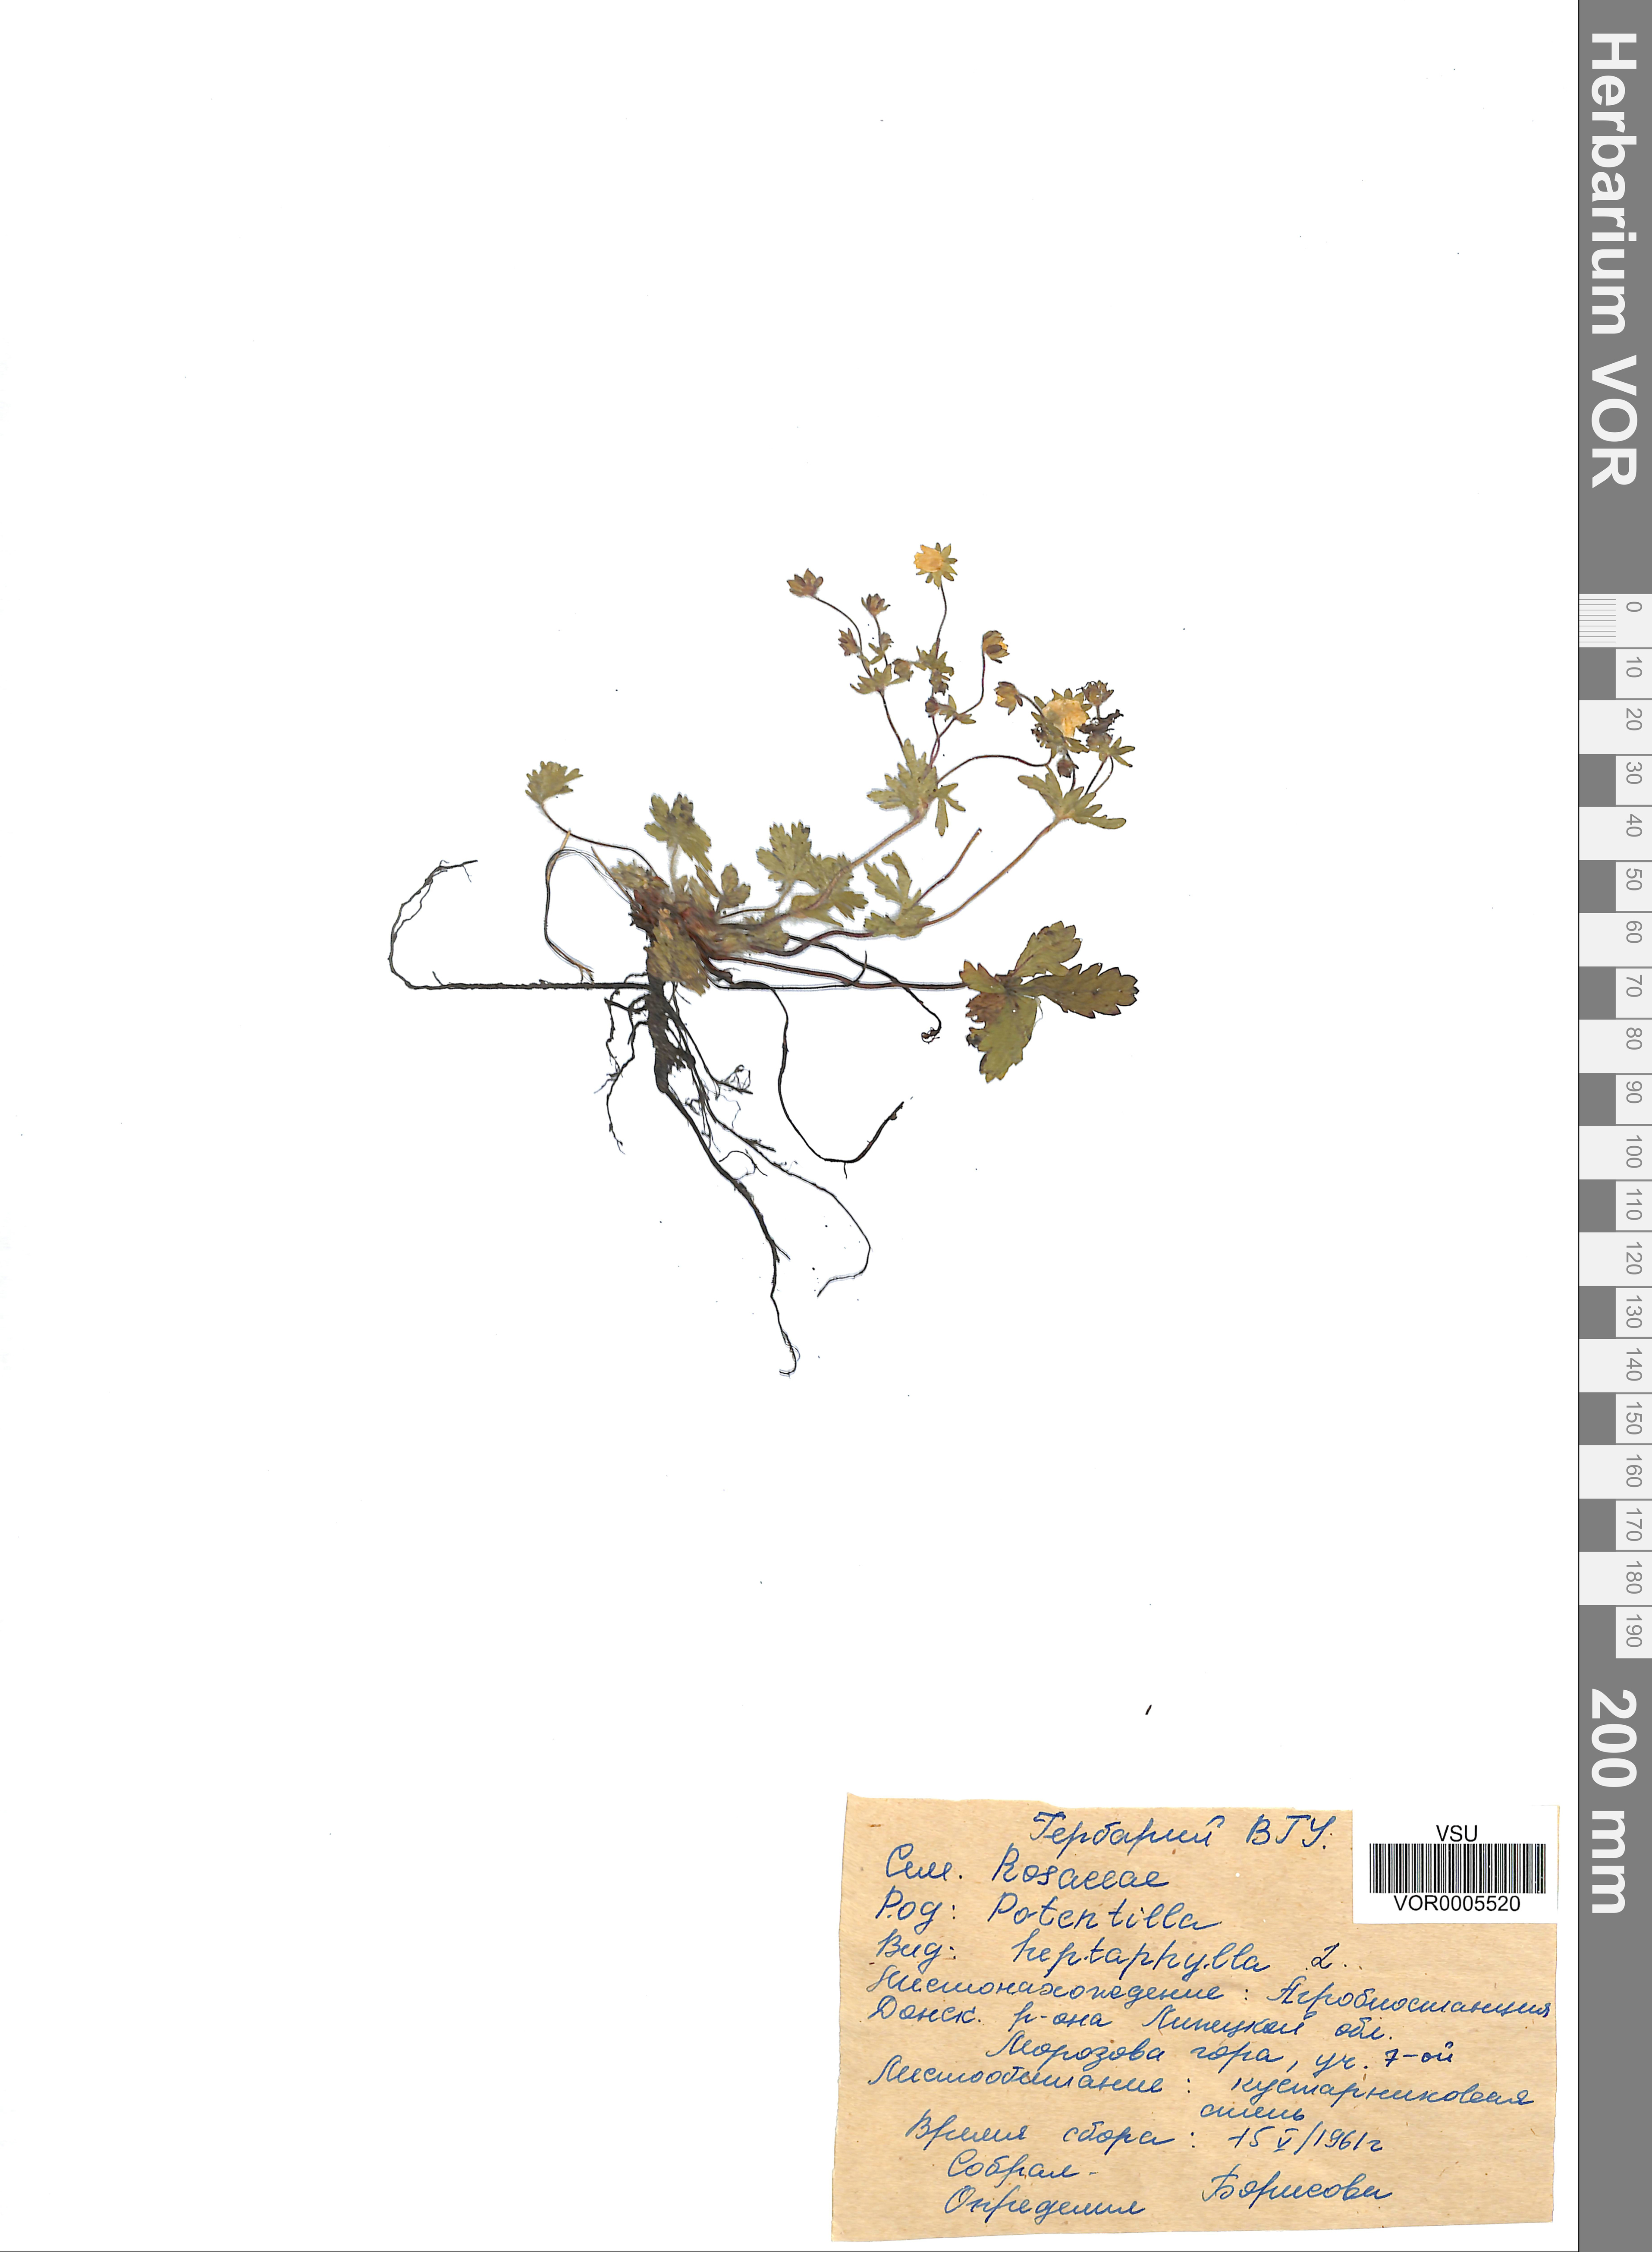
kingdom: Plantae
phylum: Tracheophyta
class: Magnoliopsida
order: Rosales
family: Rosaceae
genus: Potentilla
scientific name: Potentilla heptaphylla
